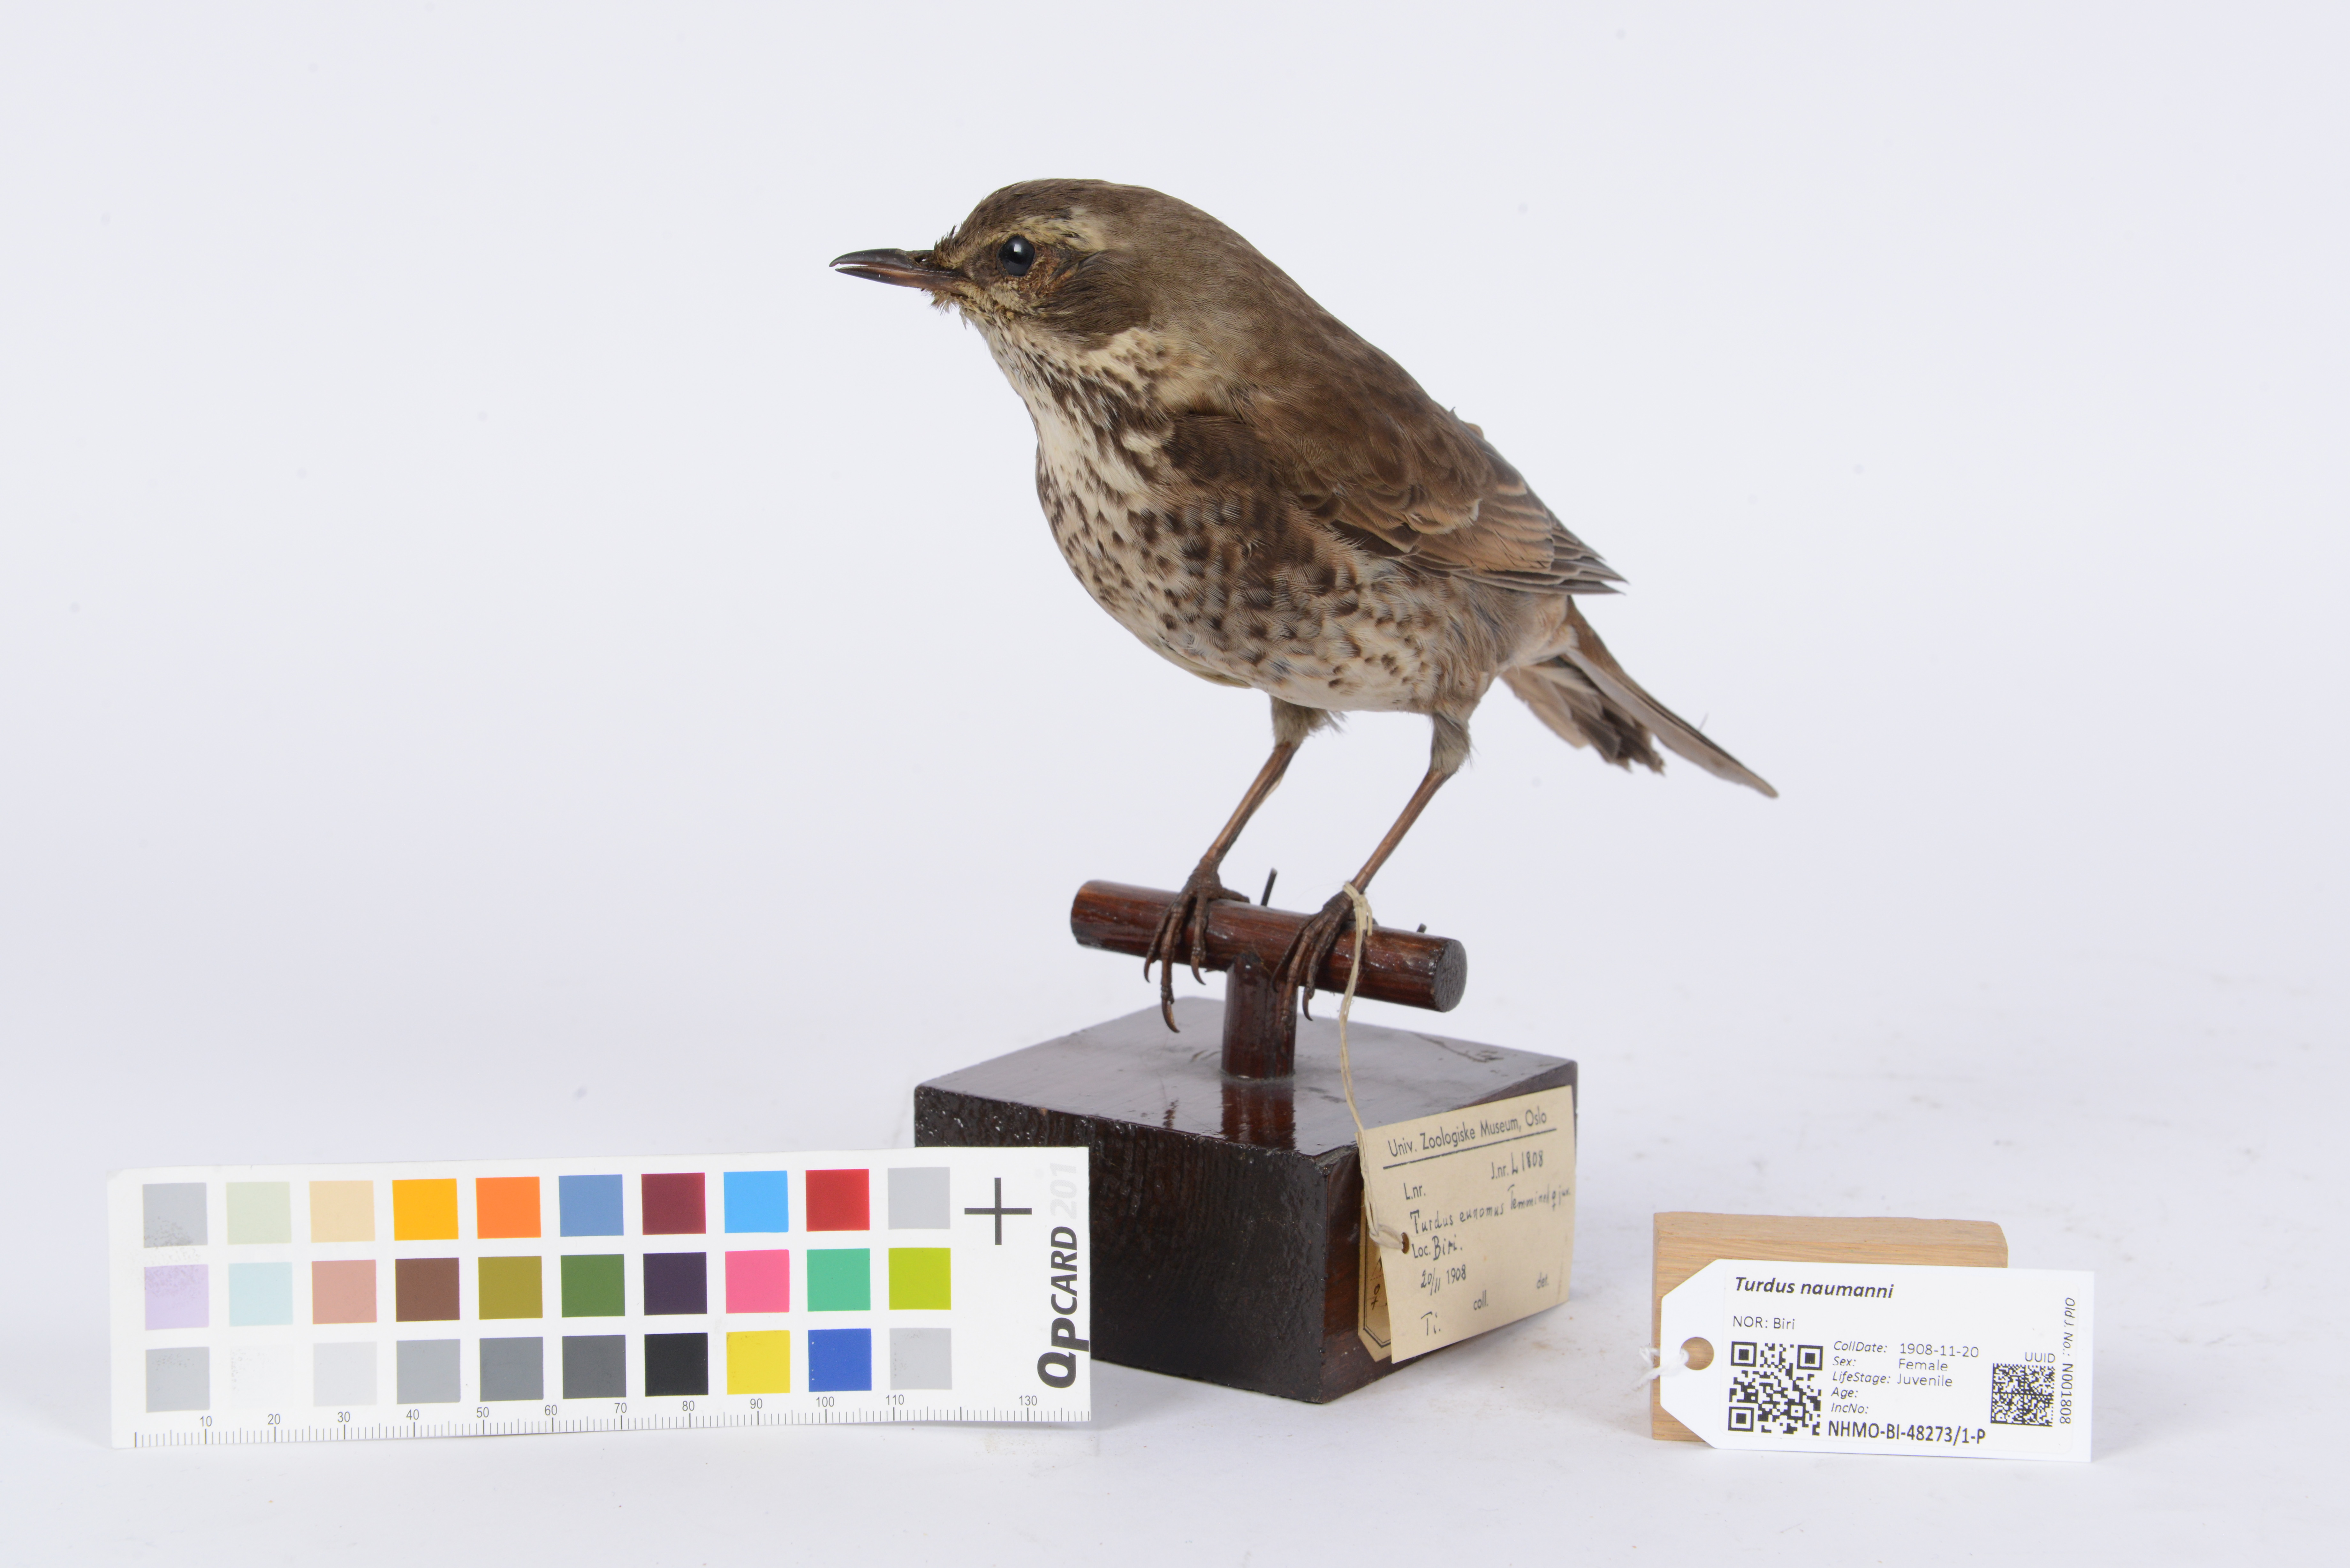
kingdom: Animalia
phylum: Chordata
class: Aves
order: Passeriformes
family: Turdidae
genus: Turdus
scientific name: Turdus naumanni
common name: Naumann's thrush
